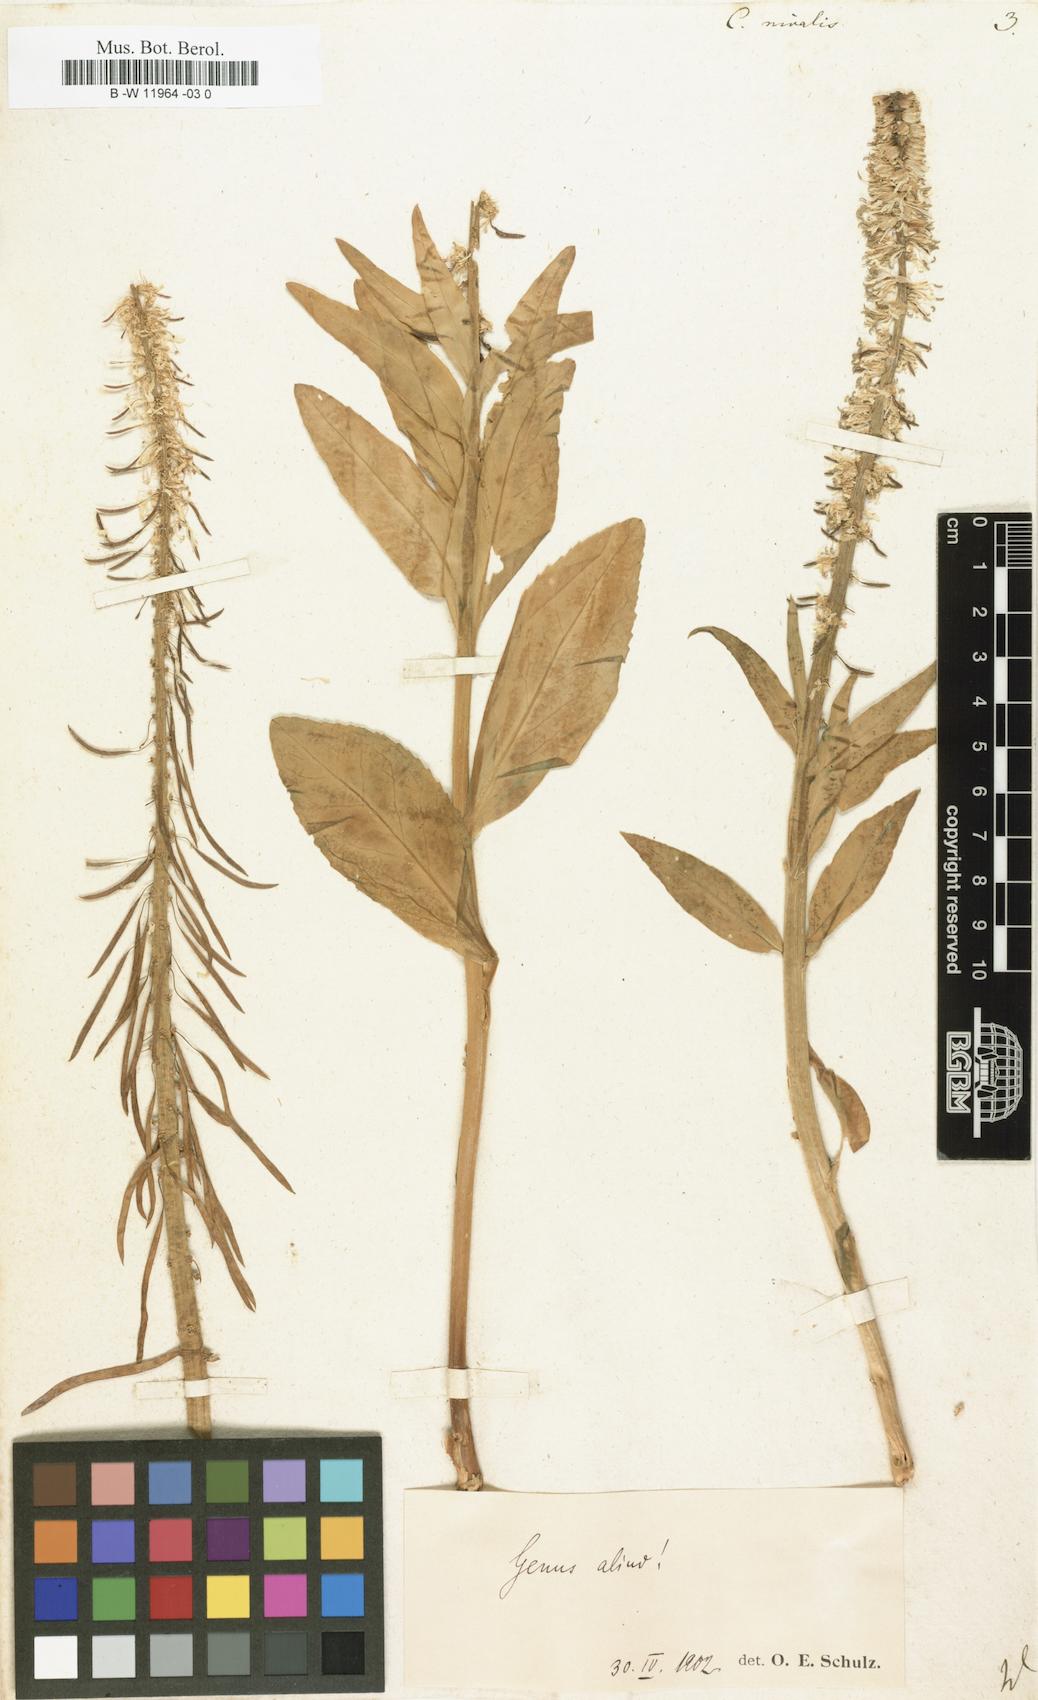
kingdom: Plantae
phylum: Tracheophyta
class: Magnoliopsida
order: Brassicales
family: Brassicaceae
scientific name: Brassicaceae
